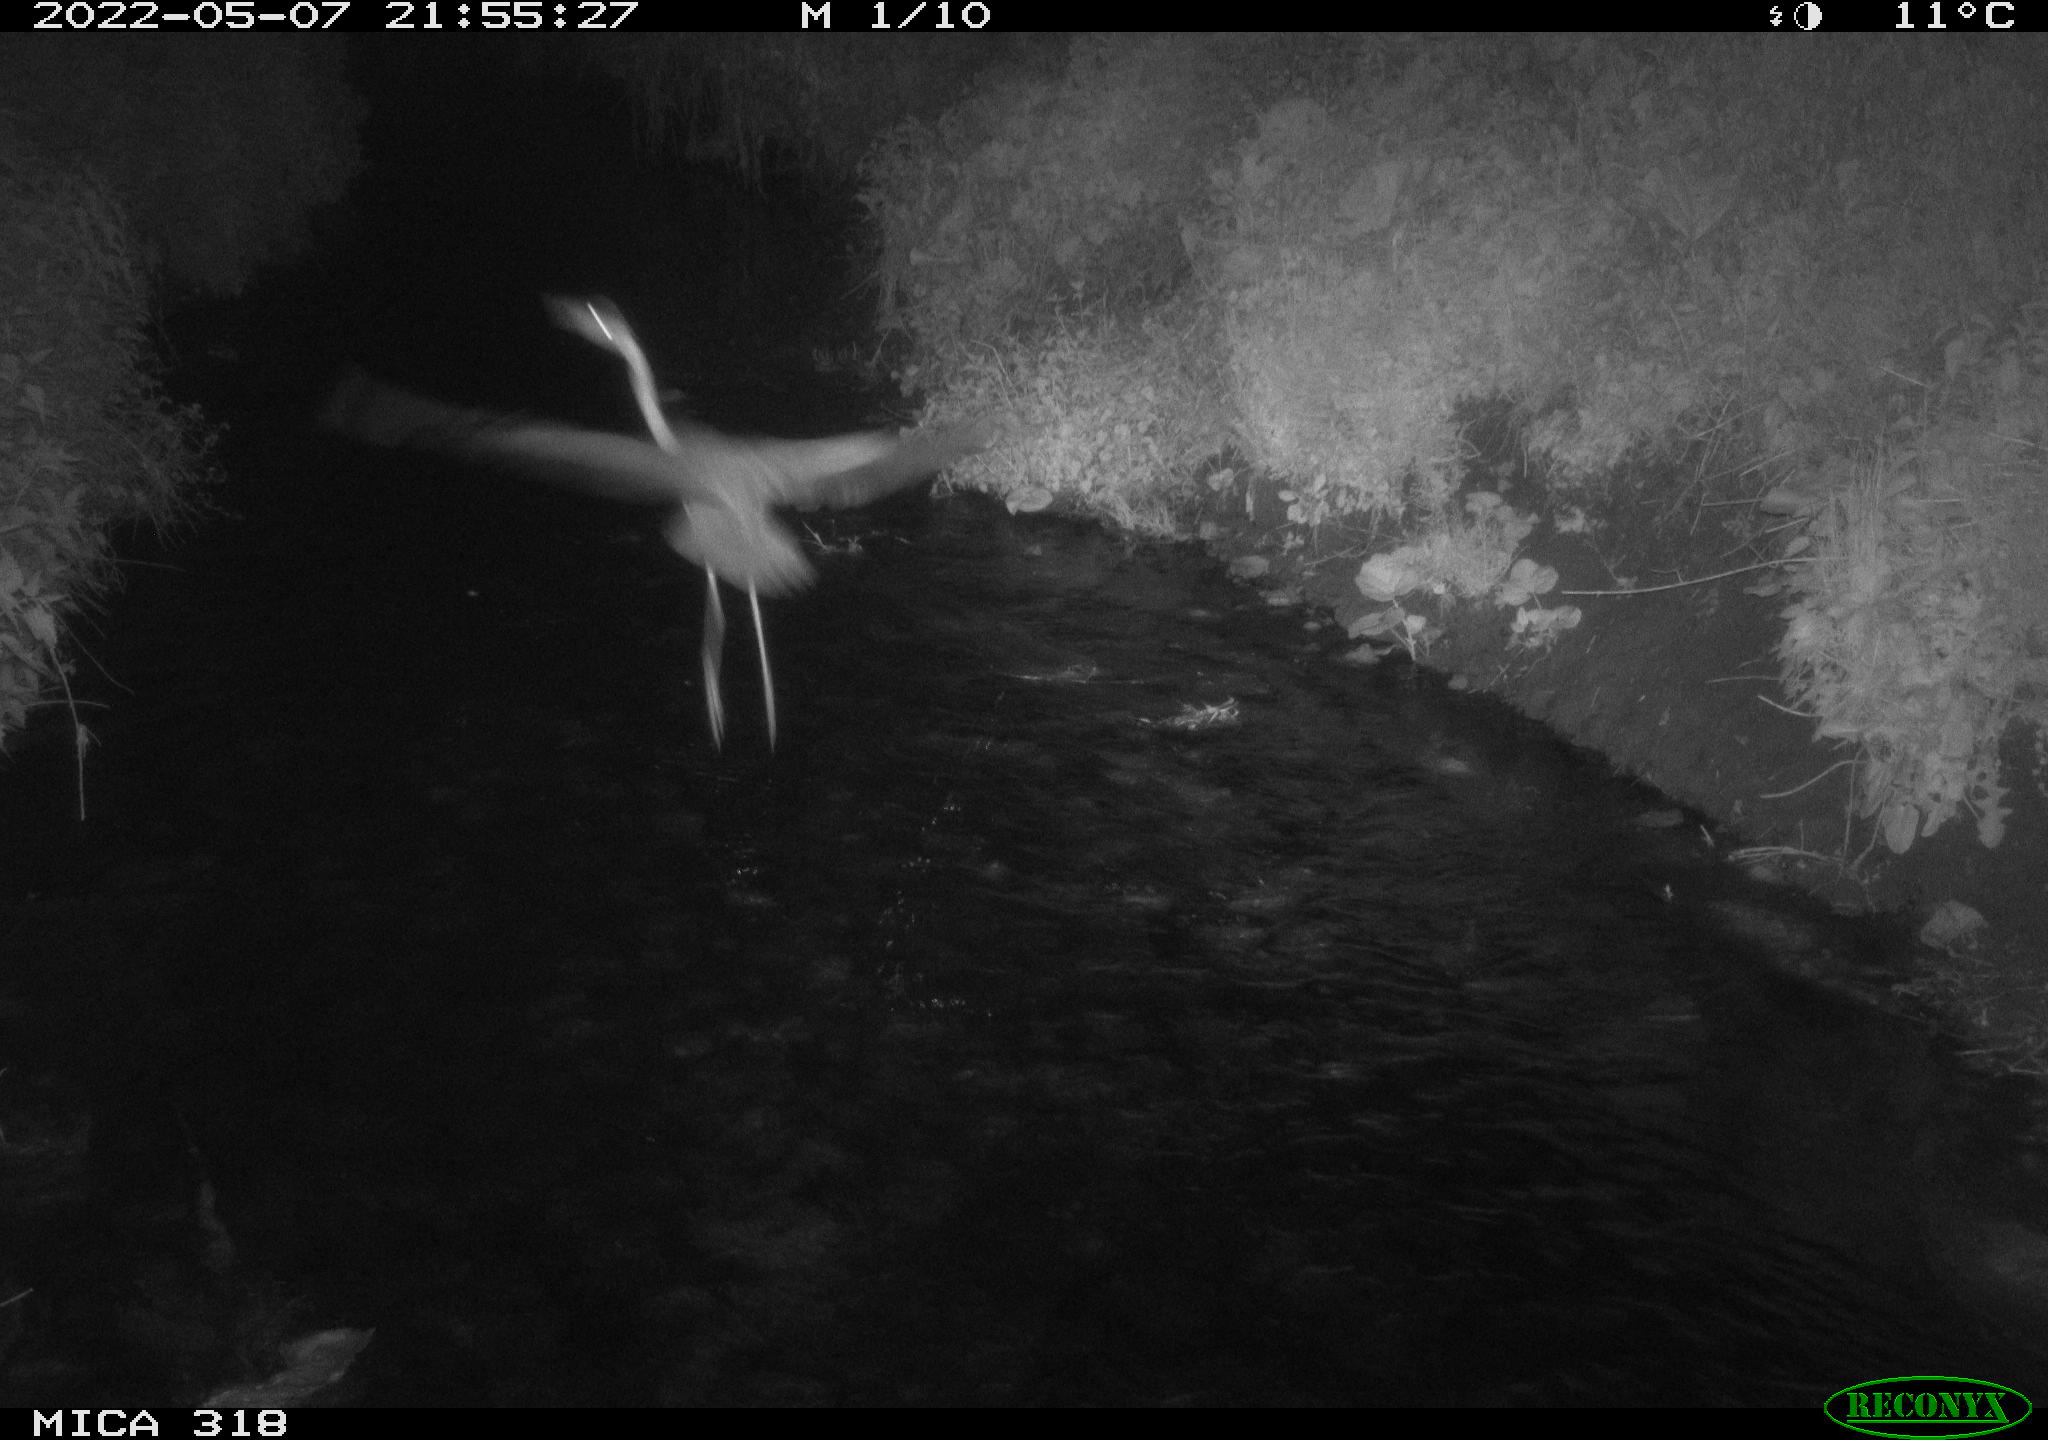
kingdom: Animalia
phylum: Chordata
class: Aves
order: Pelecaniformes
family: Ardeidae
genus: Ardea
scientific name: Ardea
